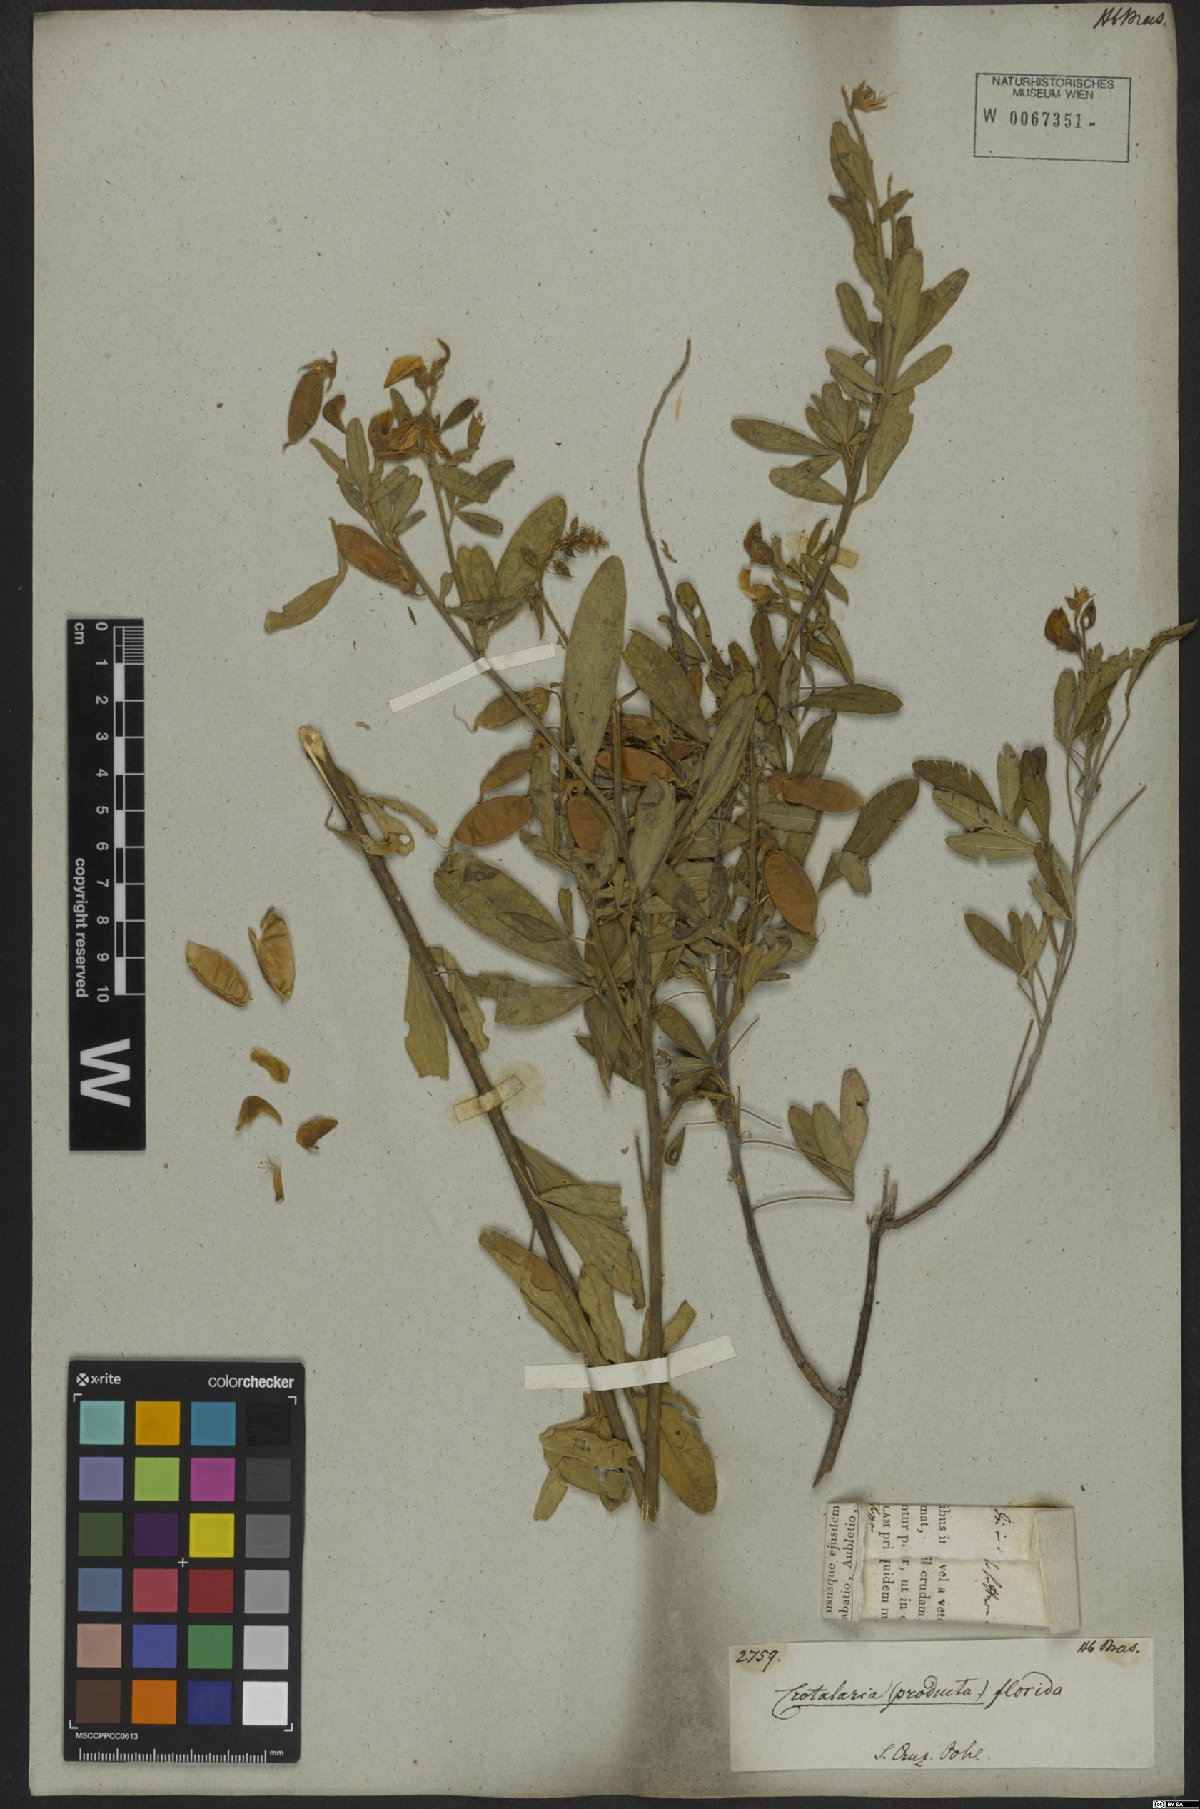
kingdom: Plantae
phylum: Tracheophyta
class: Magnoliopsida
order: Fabales
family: Fabaceae
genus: Crotalaria
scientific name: Crotalaria florida
